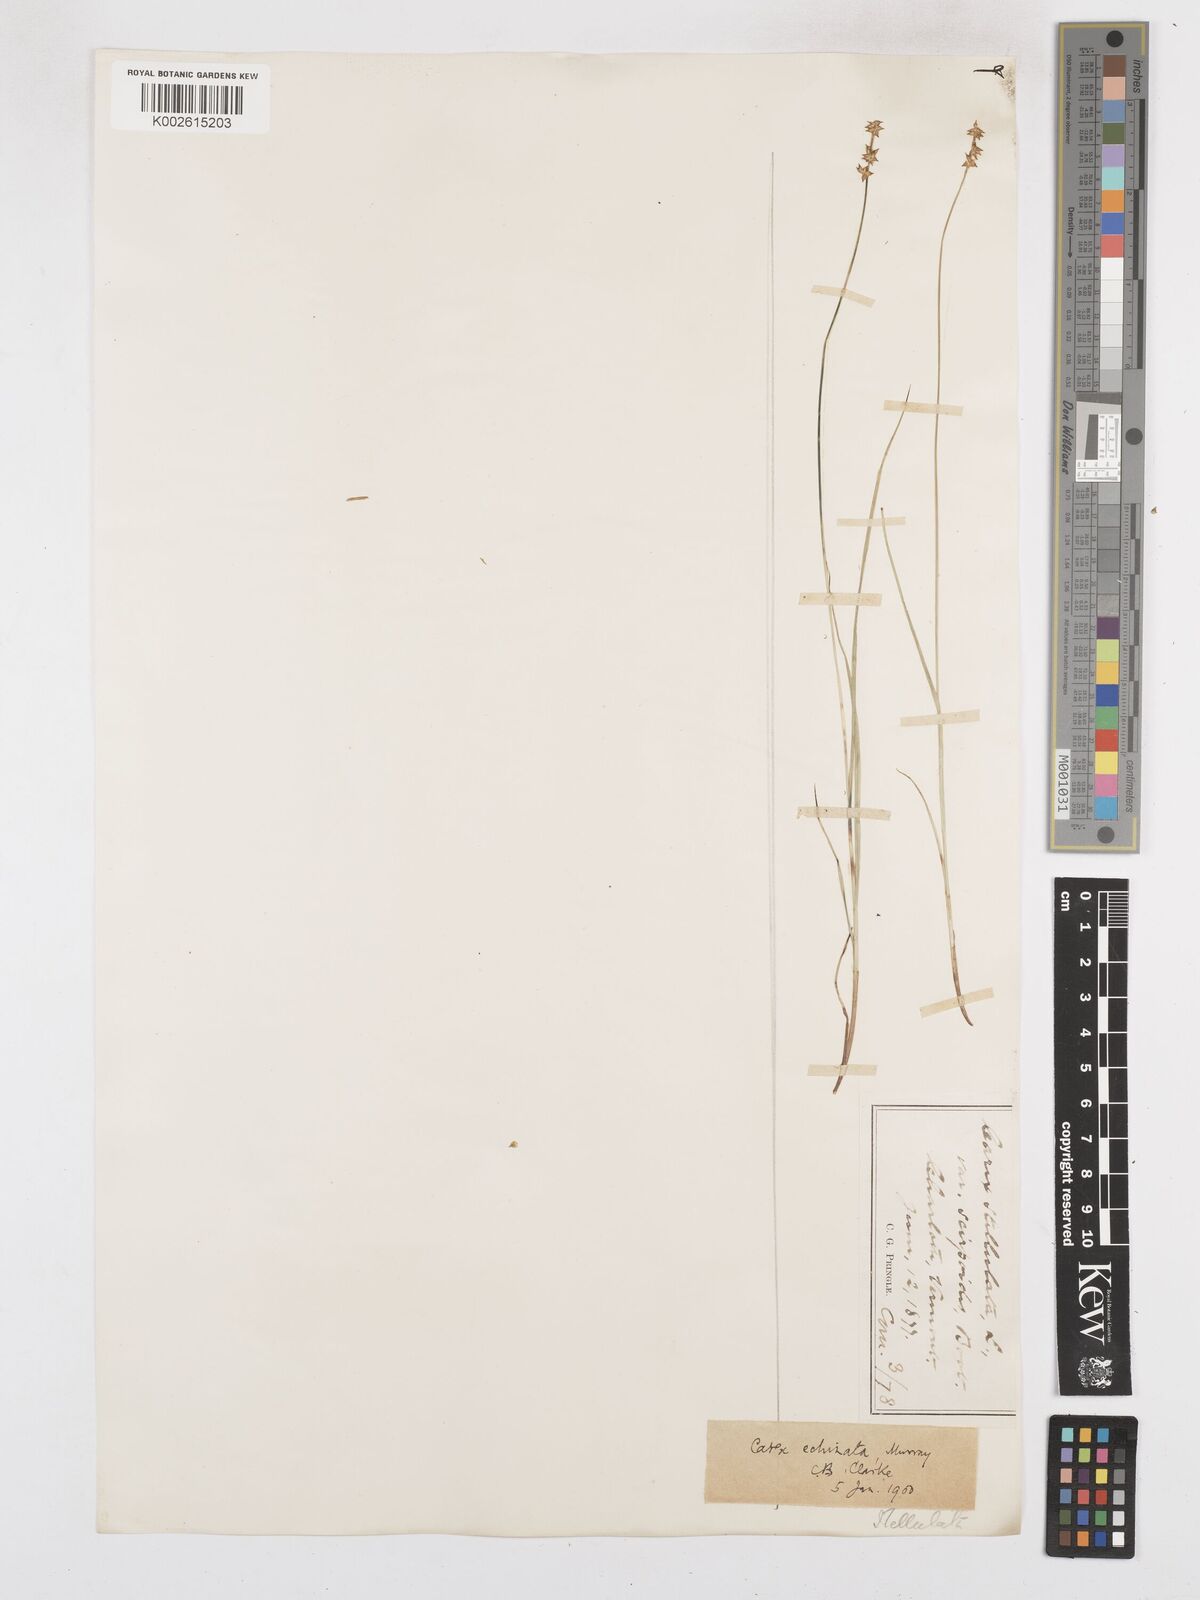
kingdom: Plantae
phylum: Tracheophyta
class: Liliopsida
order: Poales
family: Cyperaceae
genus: Carex
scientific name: Carex echinata
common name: Star sedge
